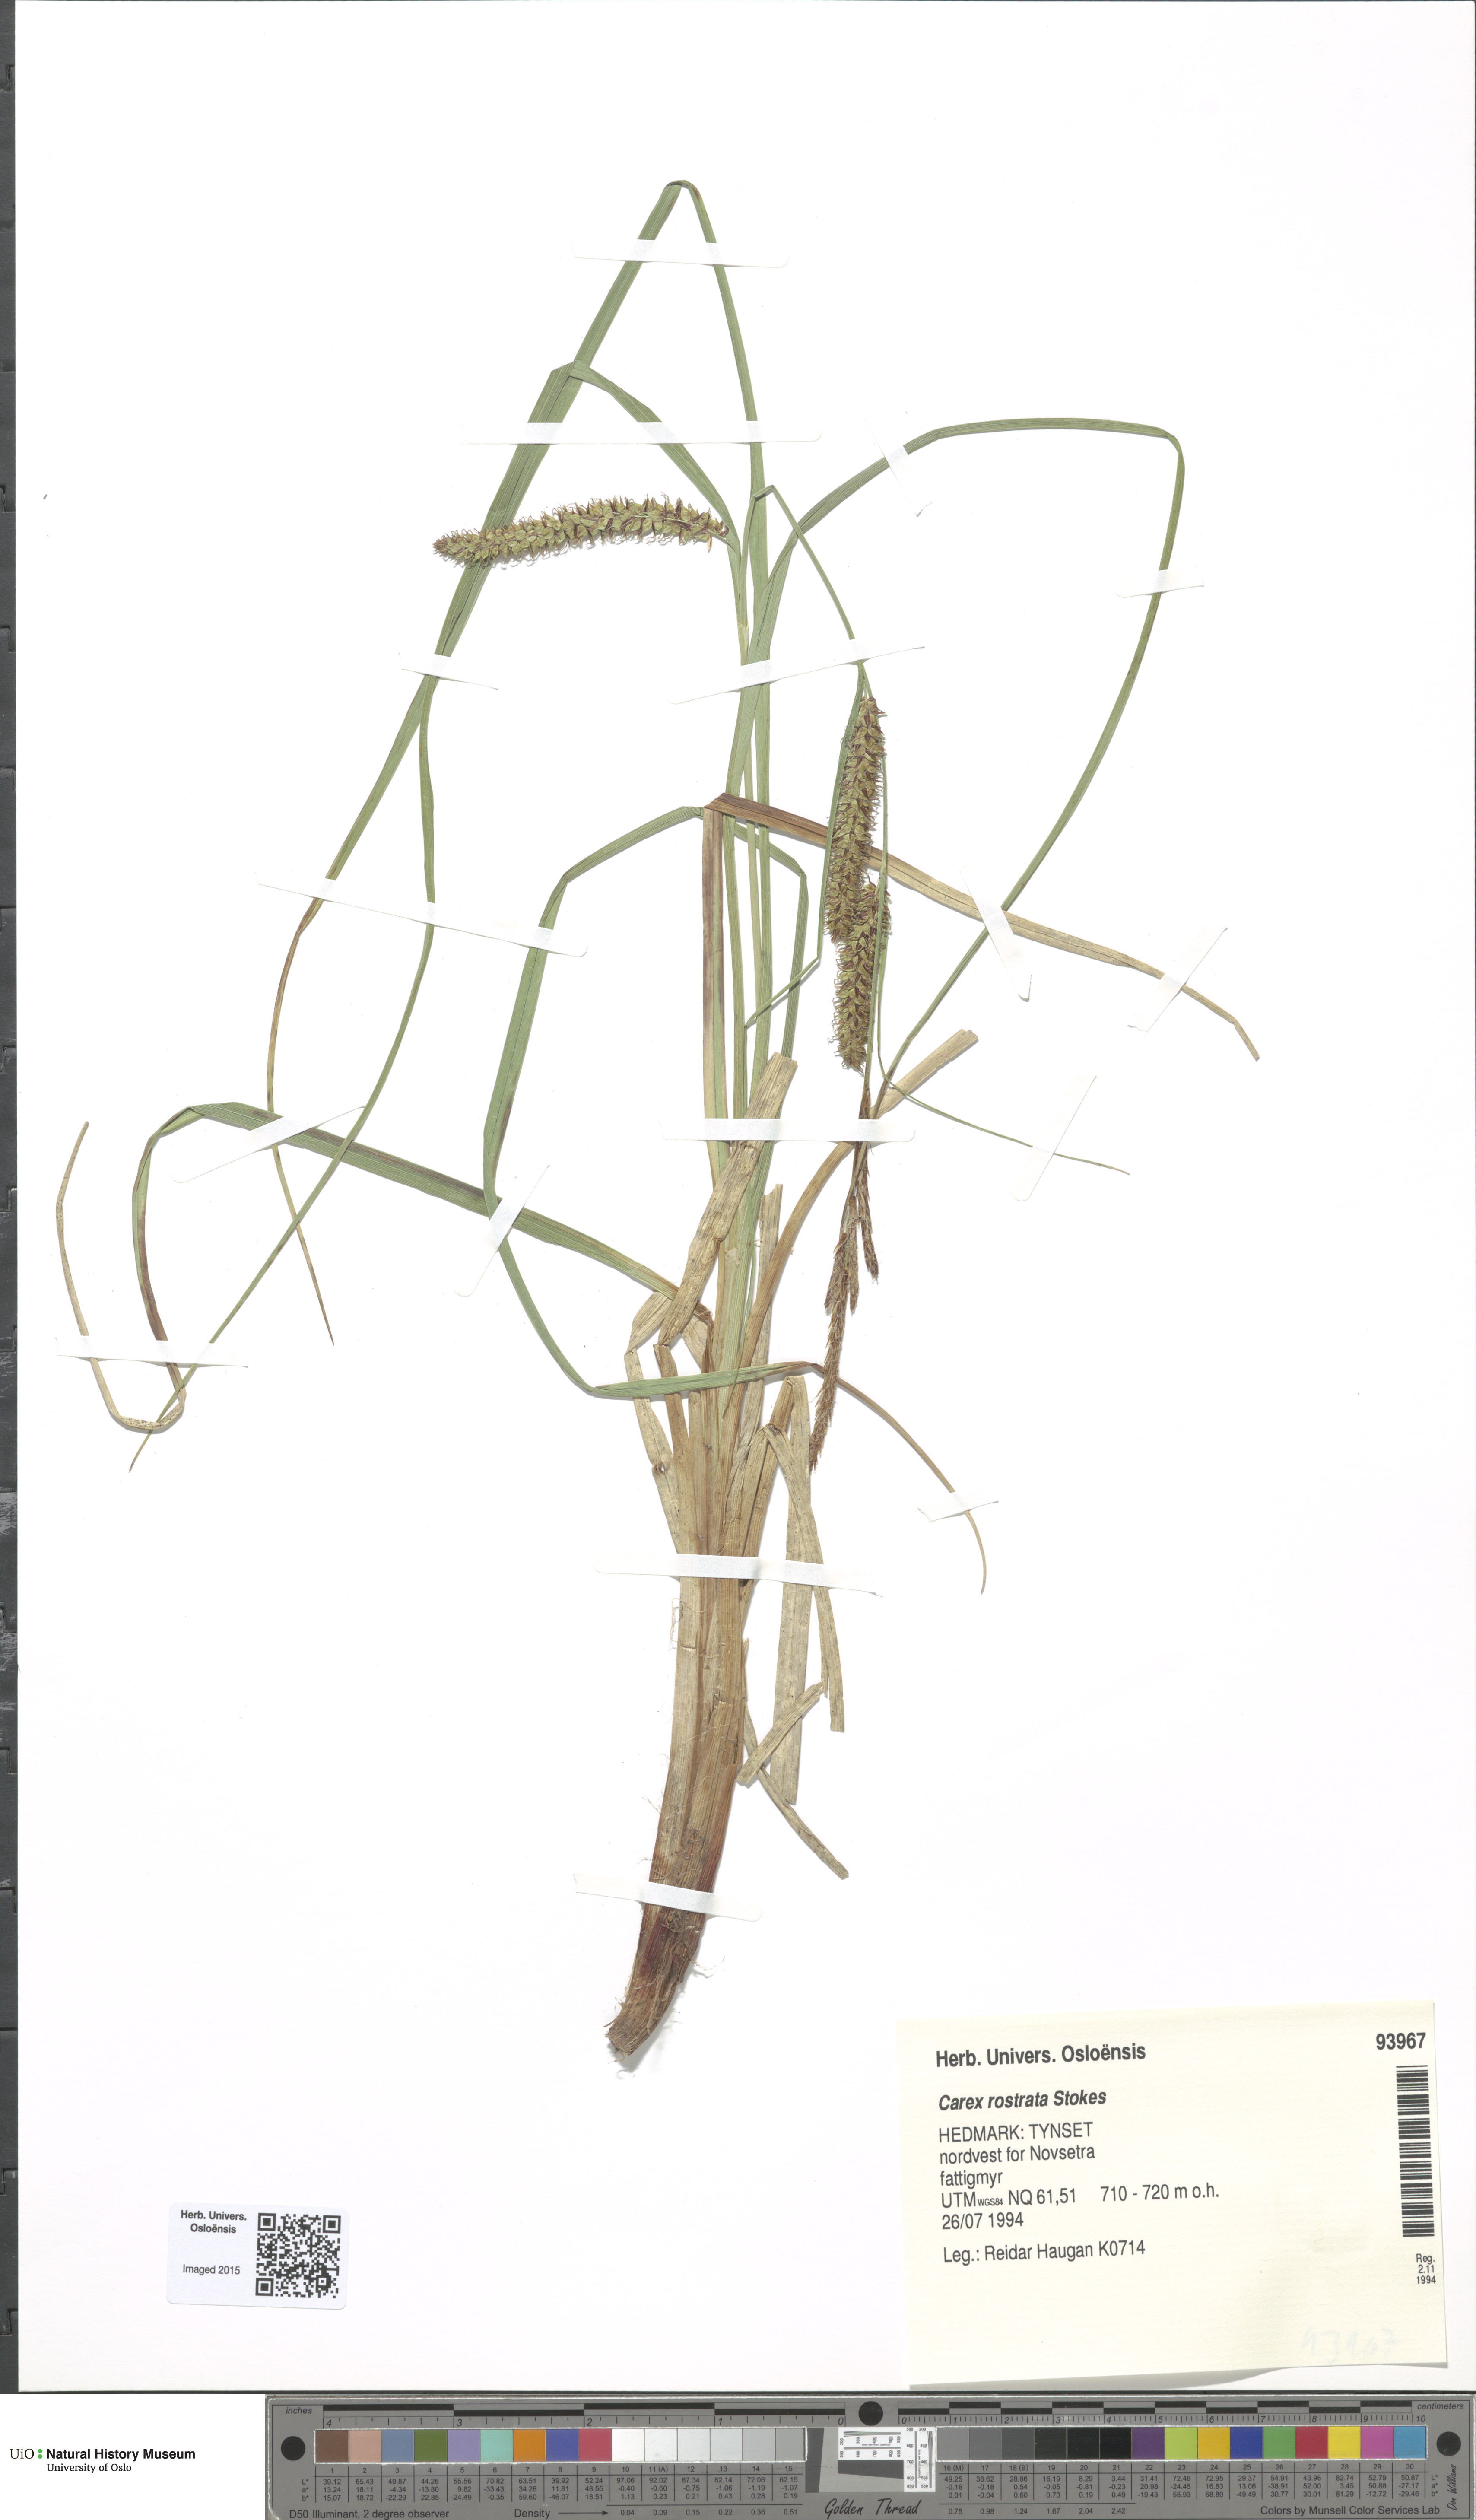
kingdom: Plantae
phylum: Tracheophyta
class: Liliopsida
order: Poales
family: Cyperaceae
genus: Carex
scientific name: Carex rostrata
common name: Bottle sedge
